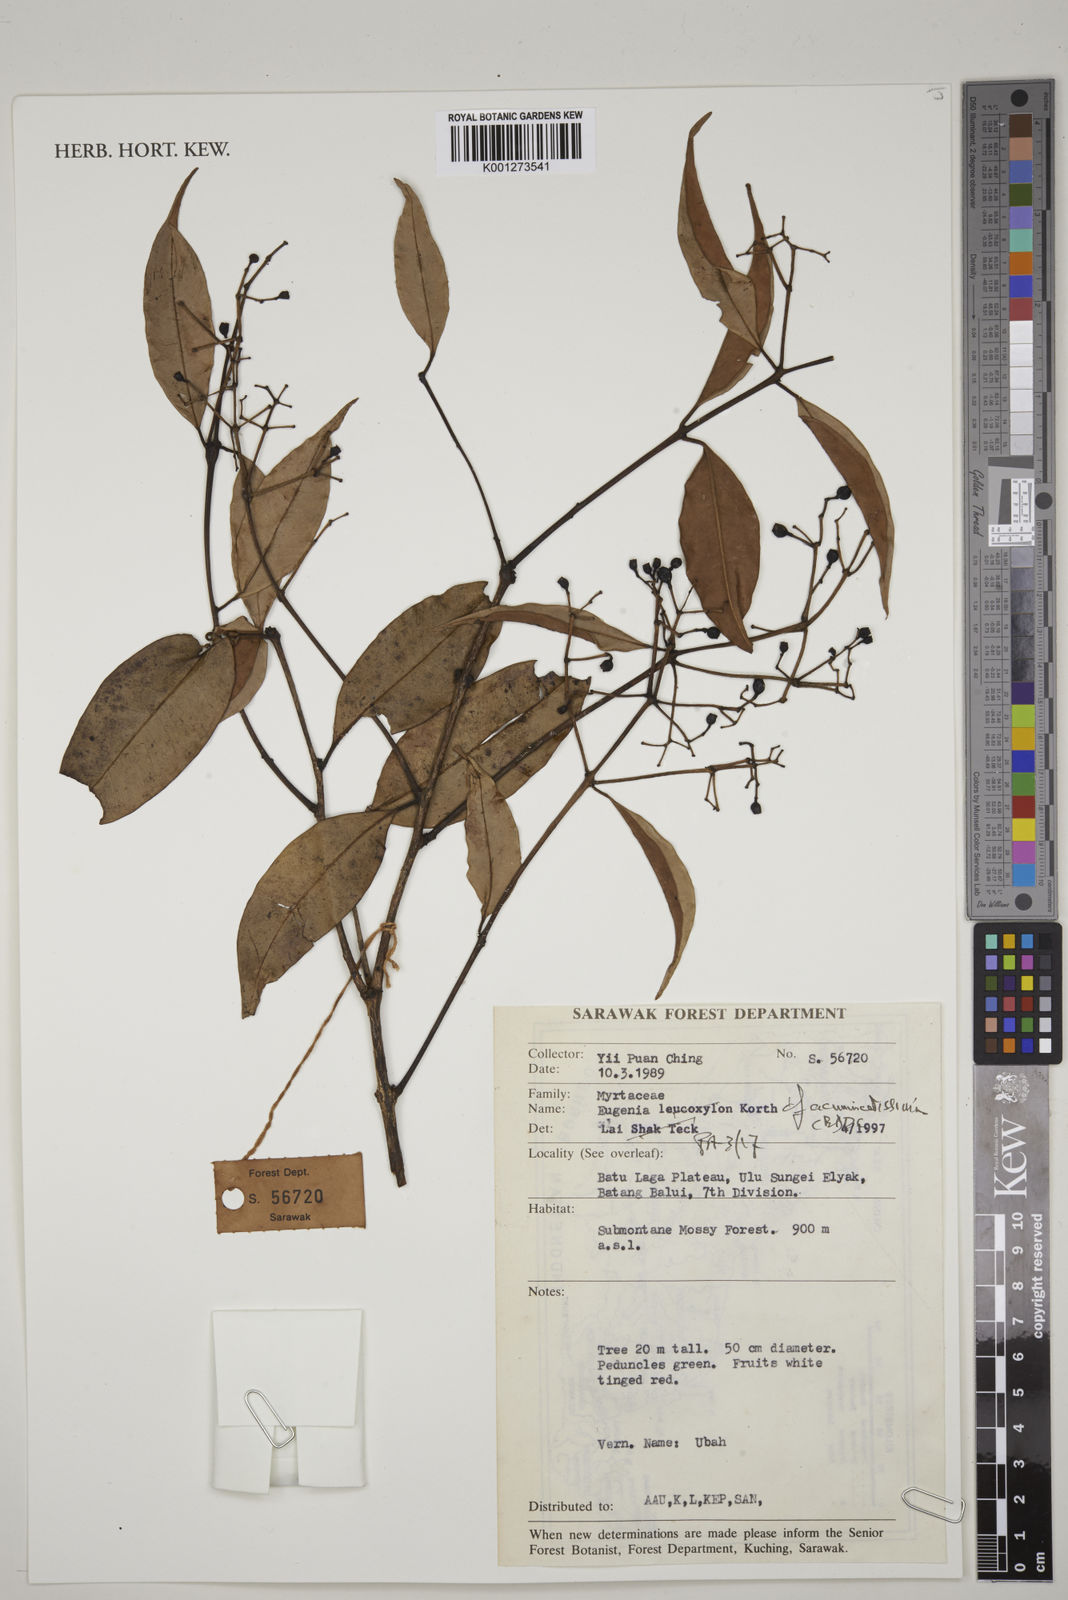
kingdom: Plantae
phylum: Tracheophyta
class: Magnoliopsida
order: Myrtales
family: Myrtaceae
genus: Syzygium
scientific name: Syzygium acuminatissimum
